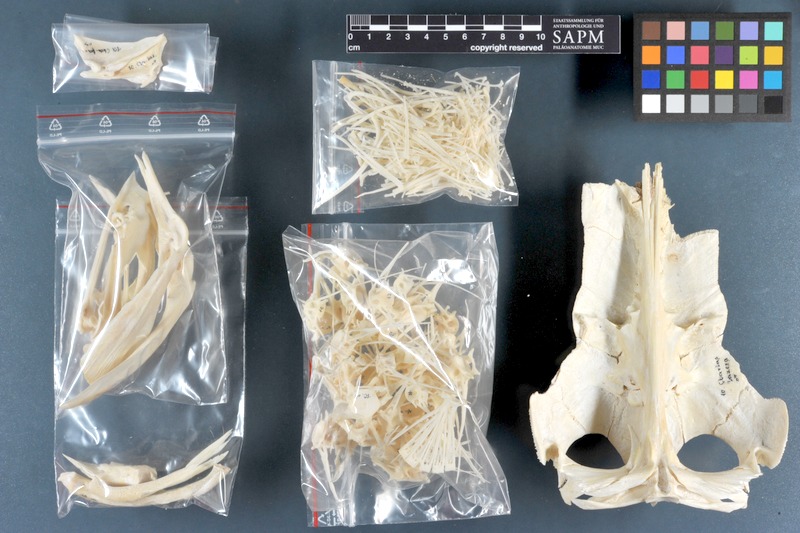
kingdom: Animalia
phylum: Chordata
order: Siluriformes
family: Clariidae
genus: Clarias
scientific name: Clarias anguillaris
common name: Catfish
